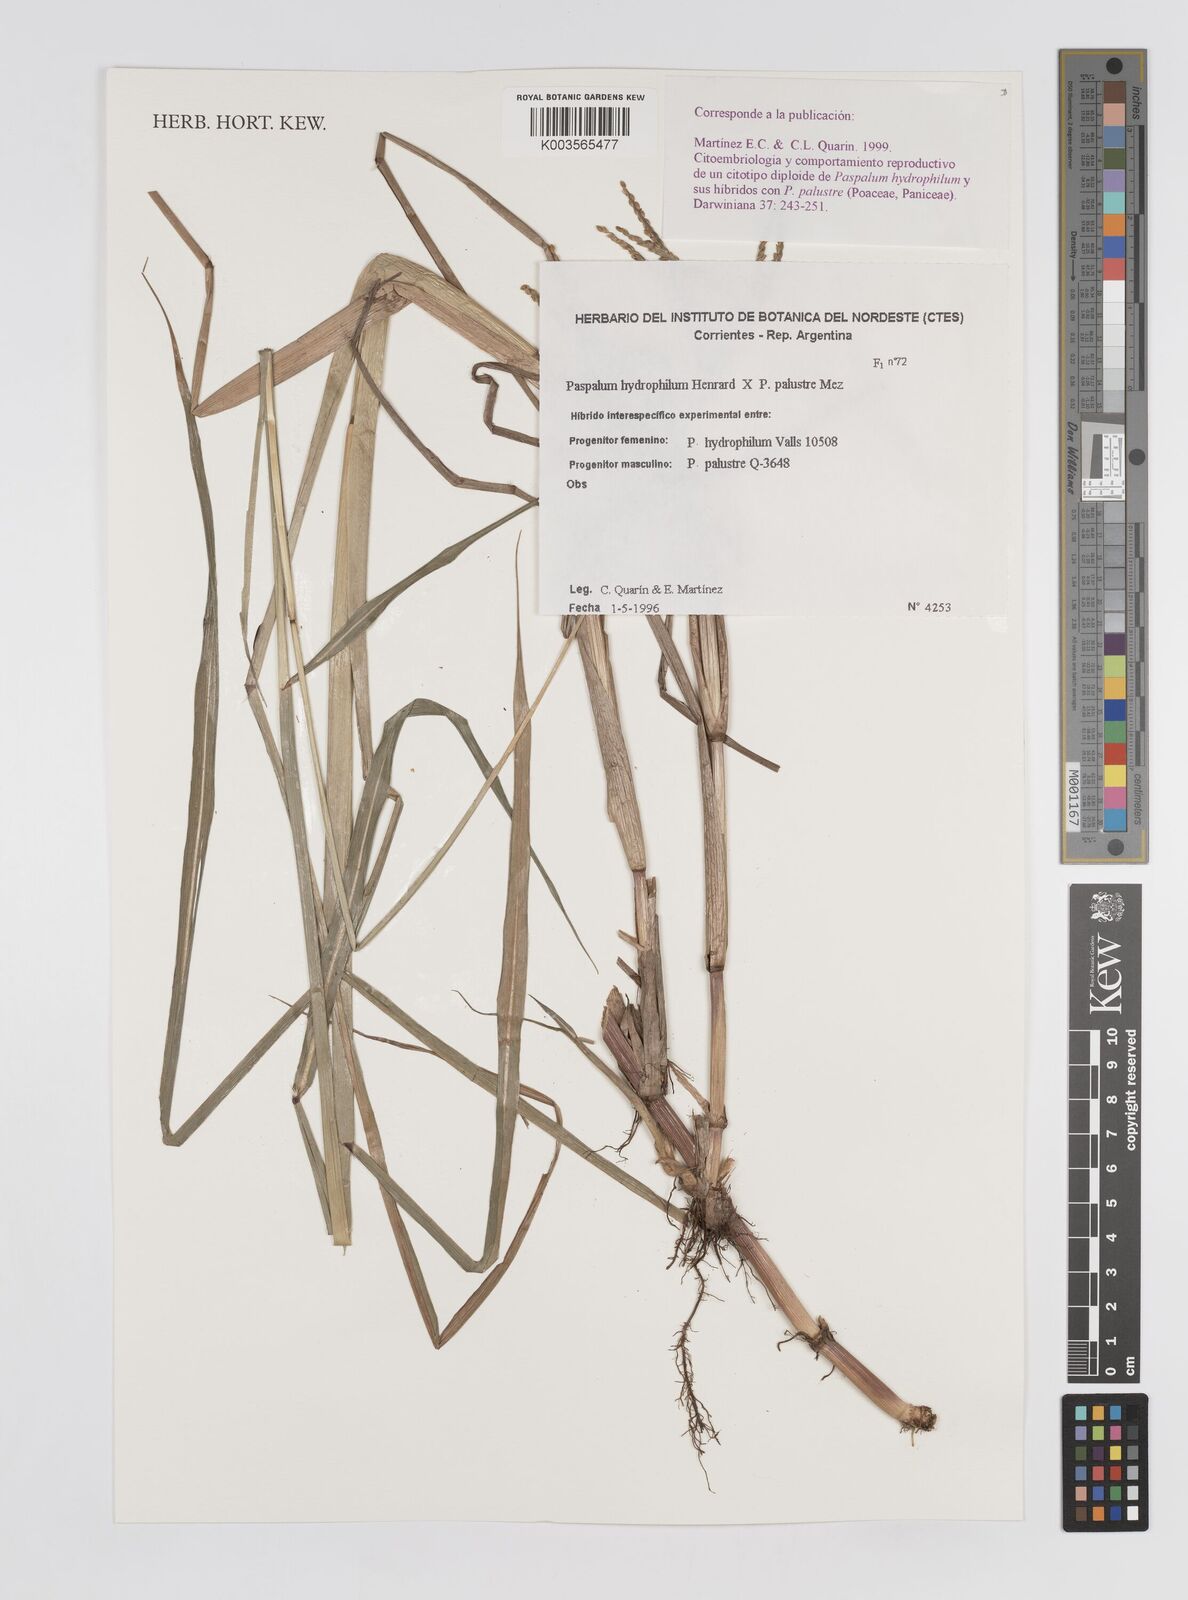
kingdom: Plantae
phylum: Tracheophyta
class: Liliopsida
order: Poales
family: Poaceae
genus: Paspalum
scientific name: Paspalum wrightii
